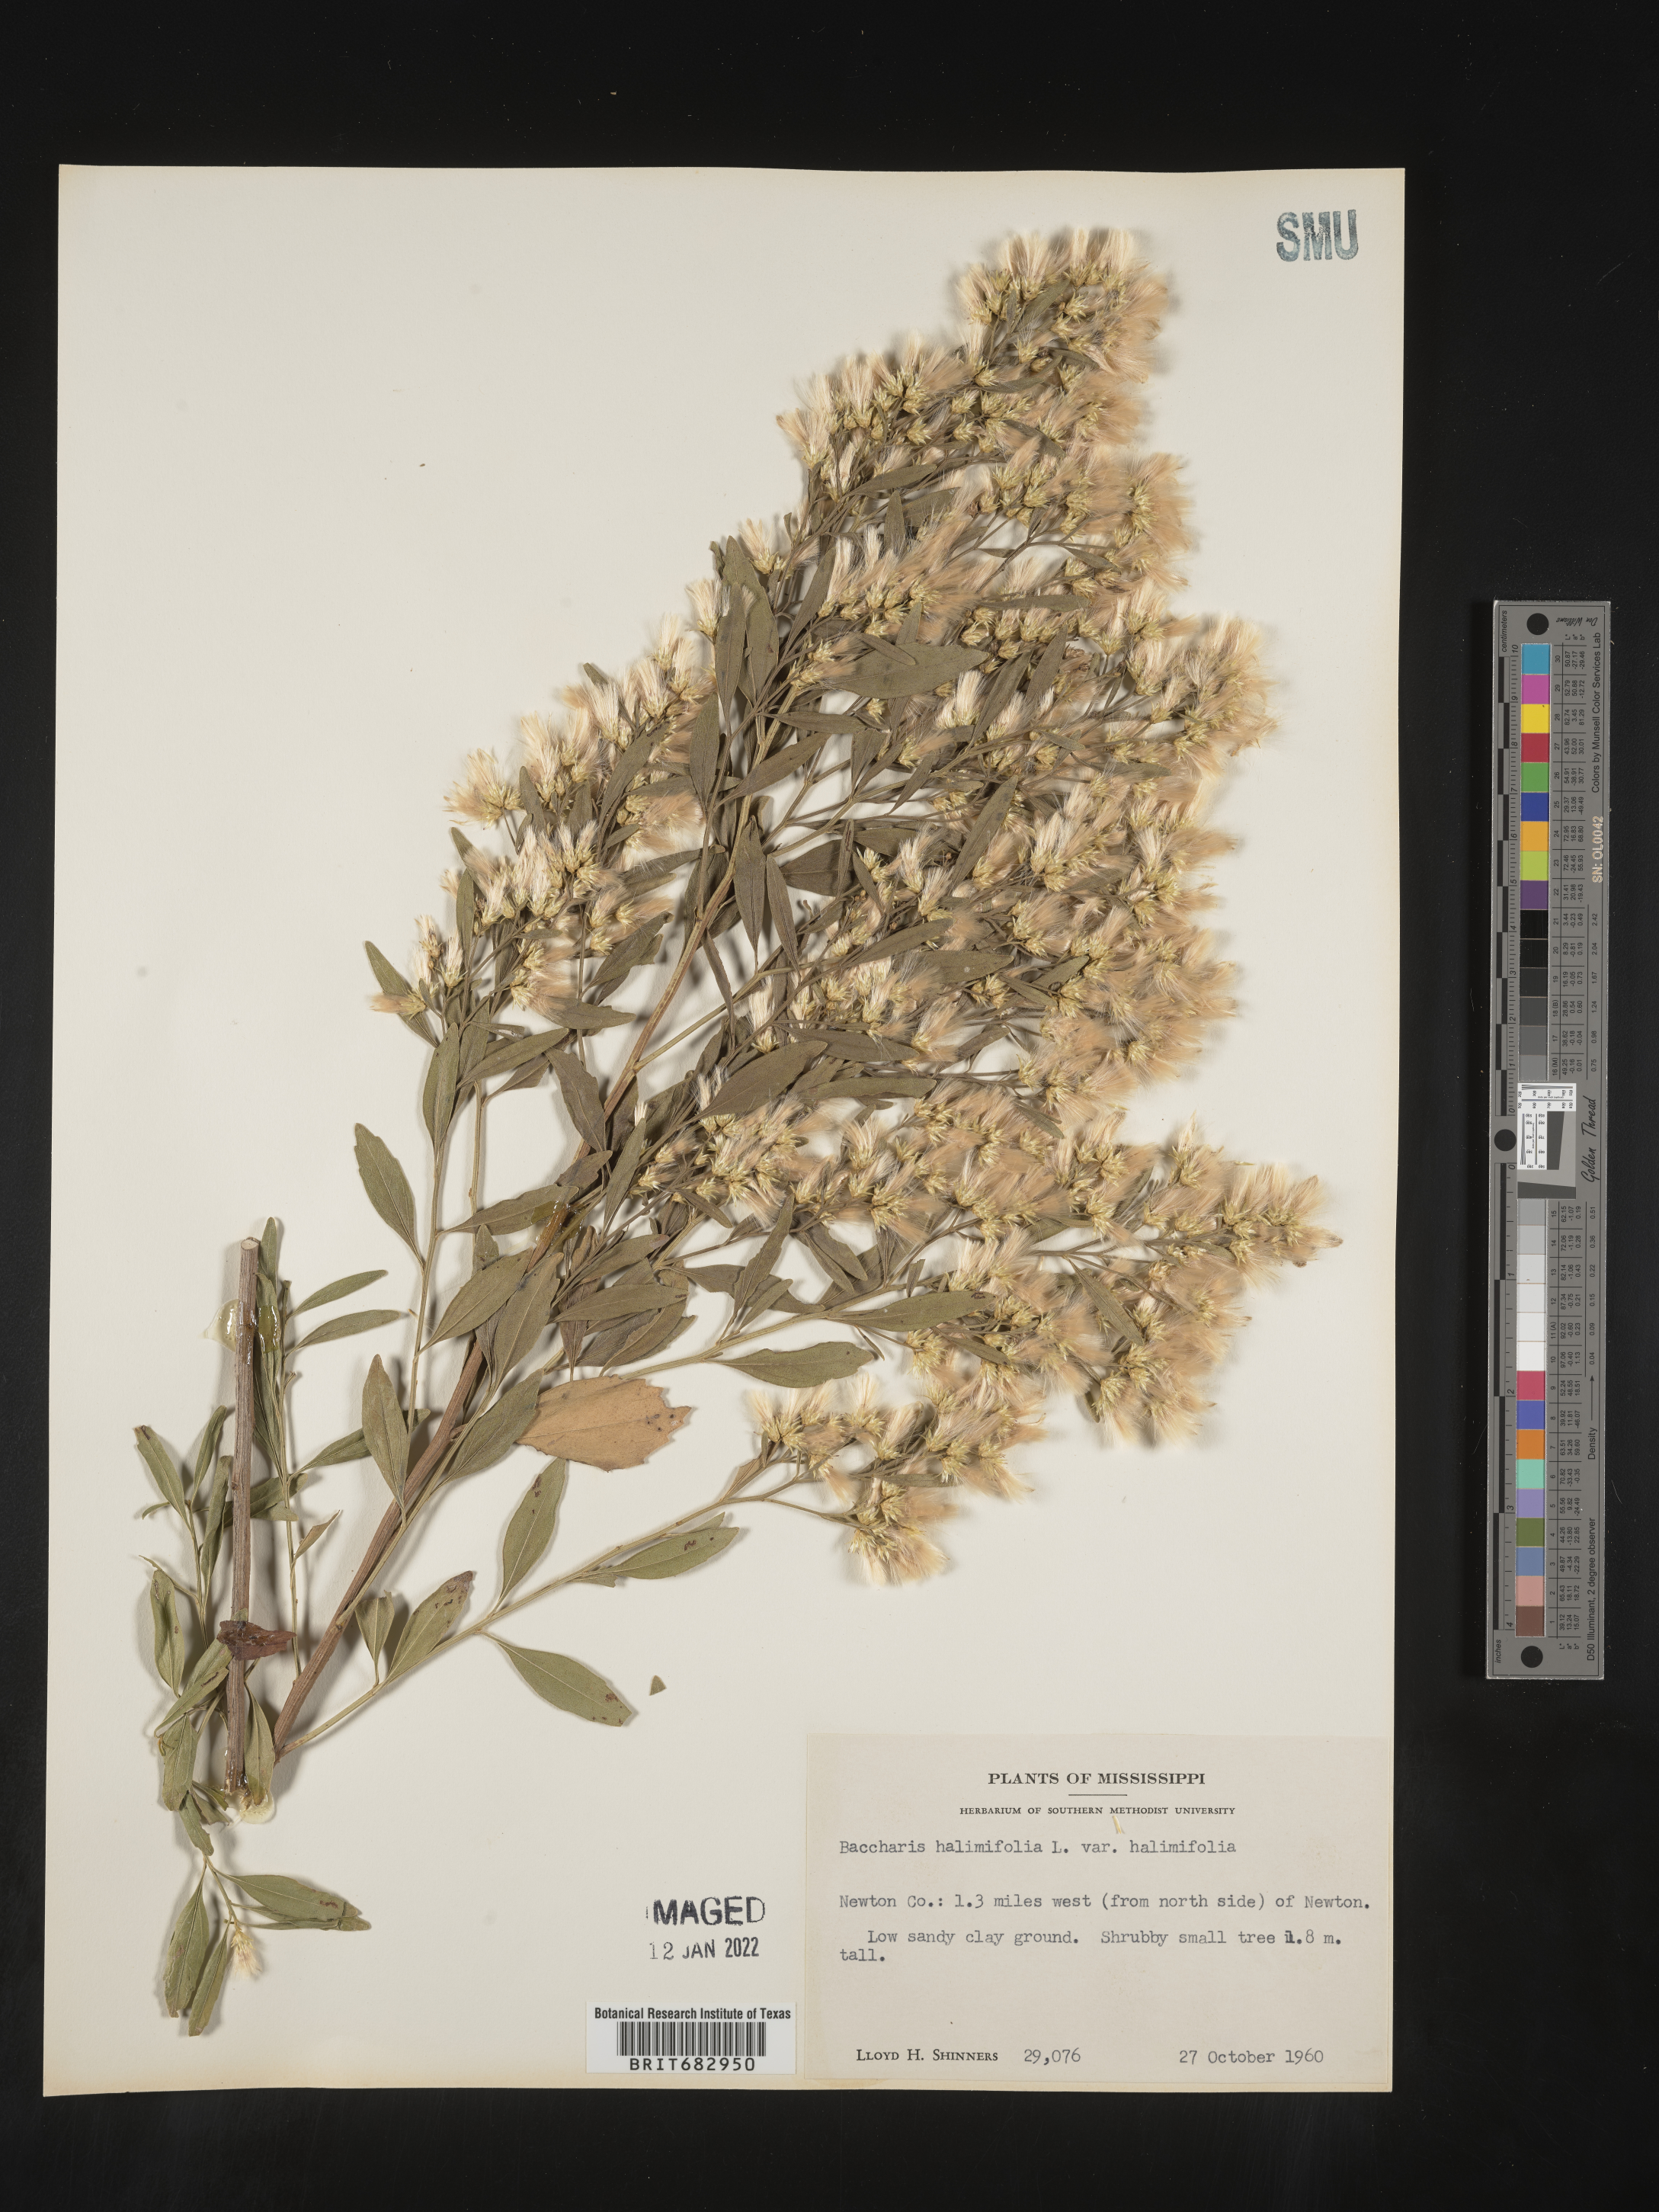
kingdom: Plantae
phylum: Tracheophyta
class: Magnoliopsida
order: Asterales
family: Asteraceae
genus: Nidorella
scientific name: Nidorella ivifolia
